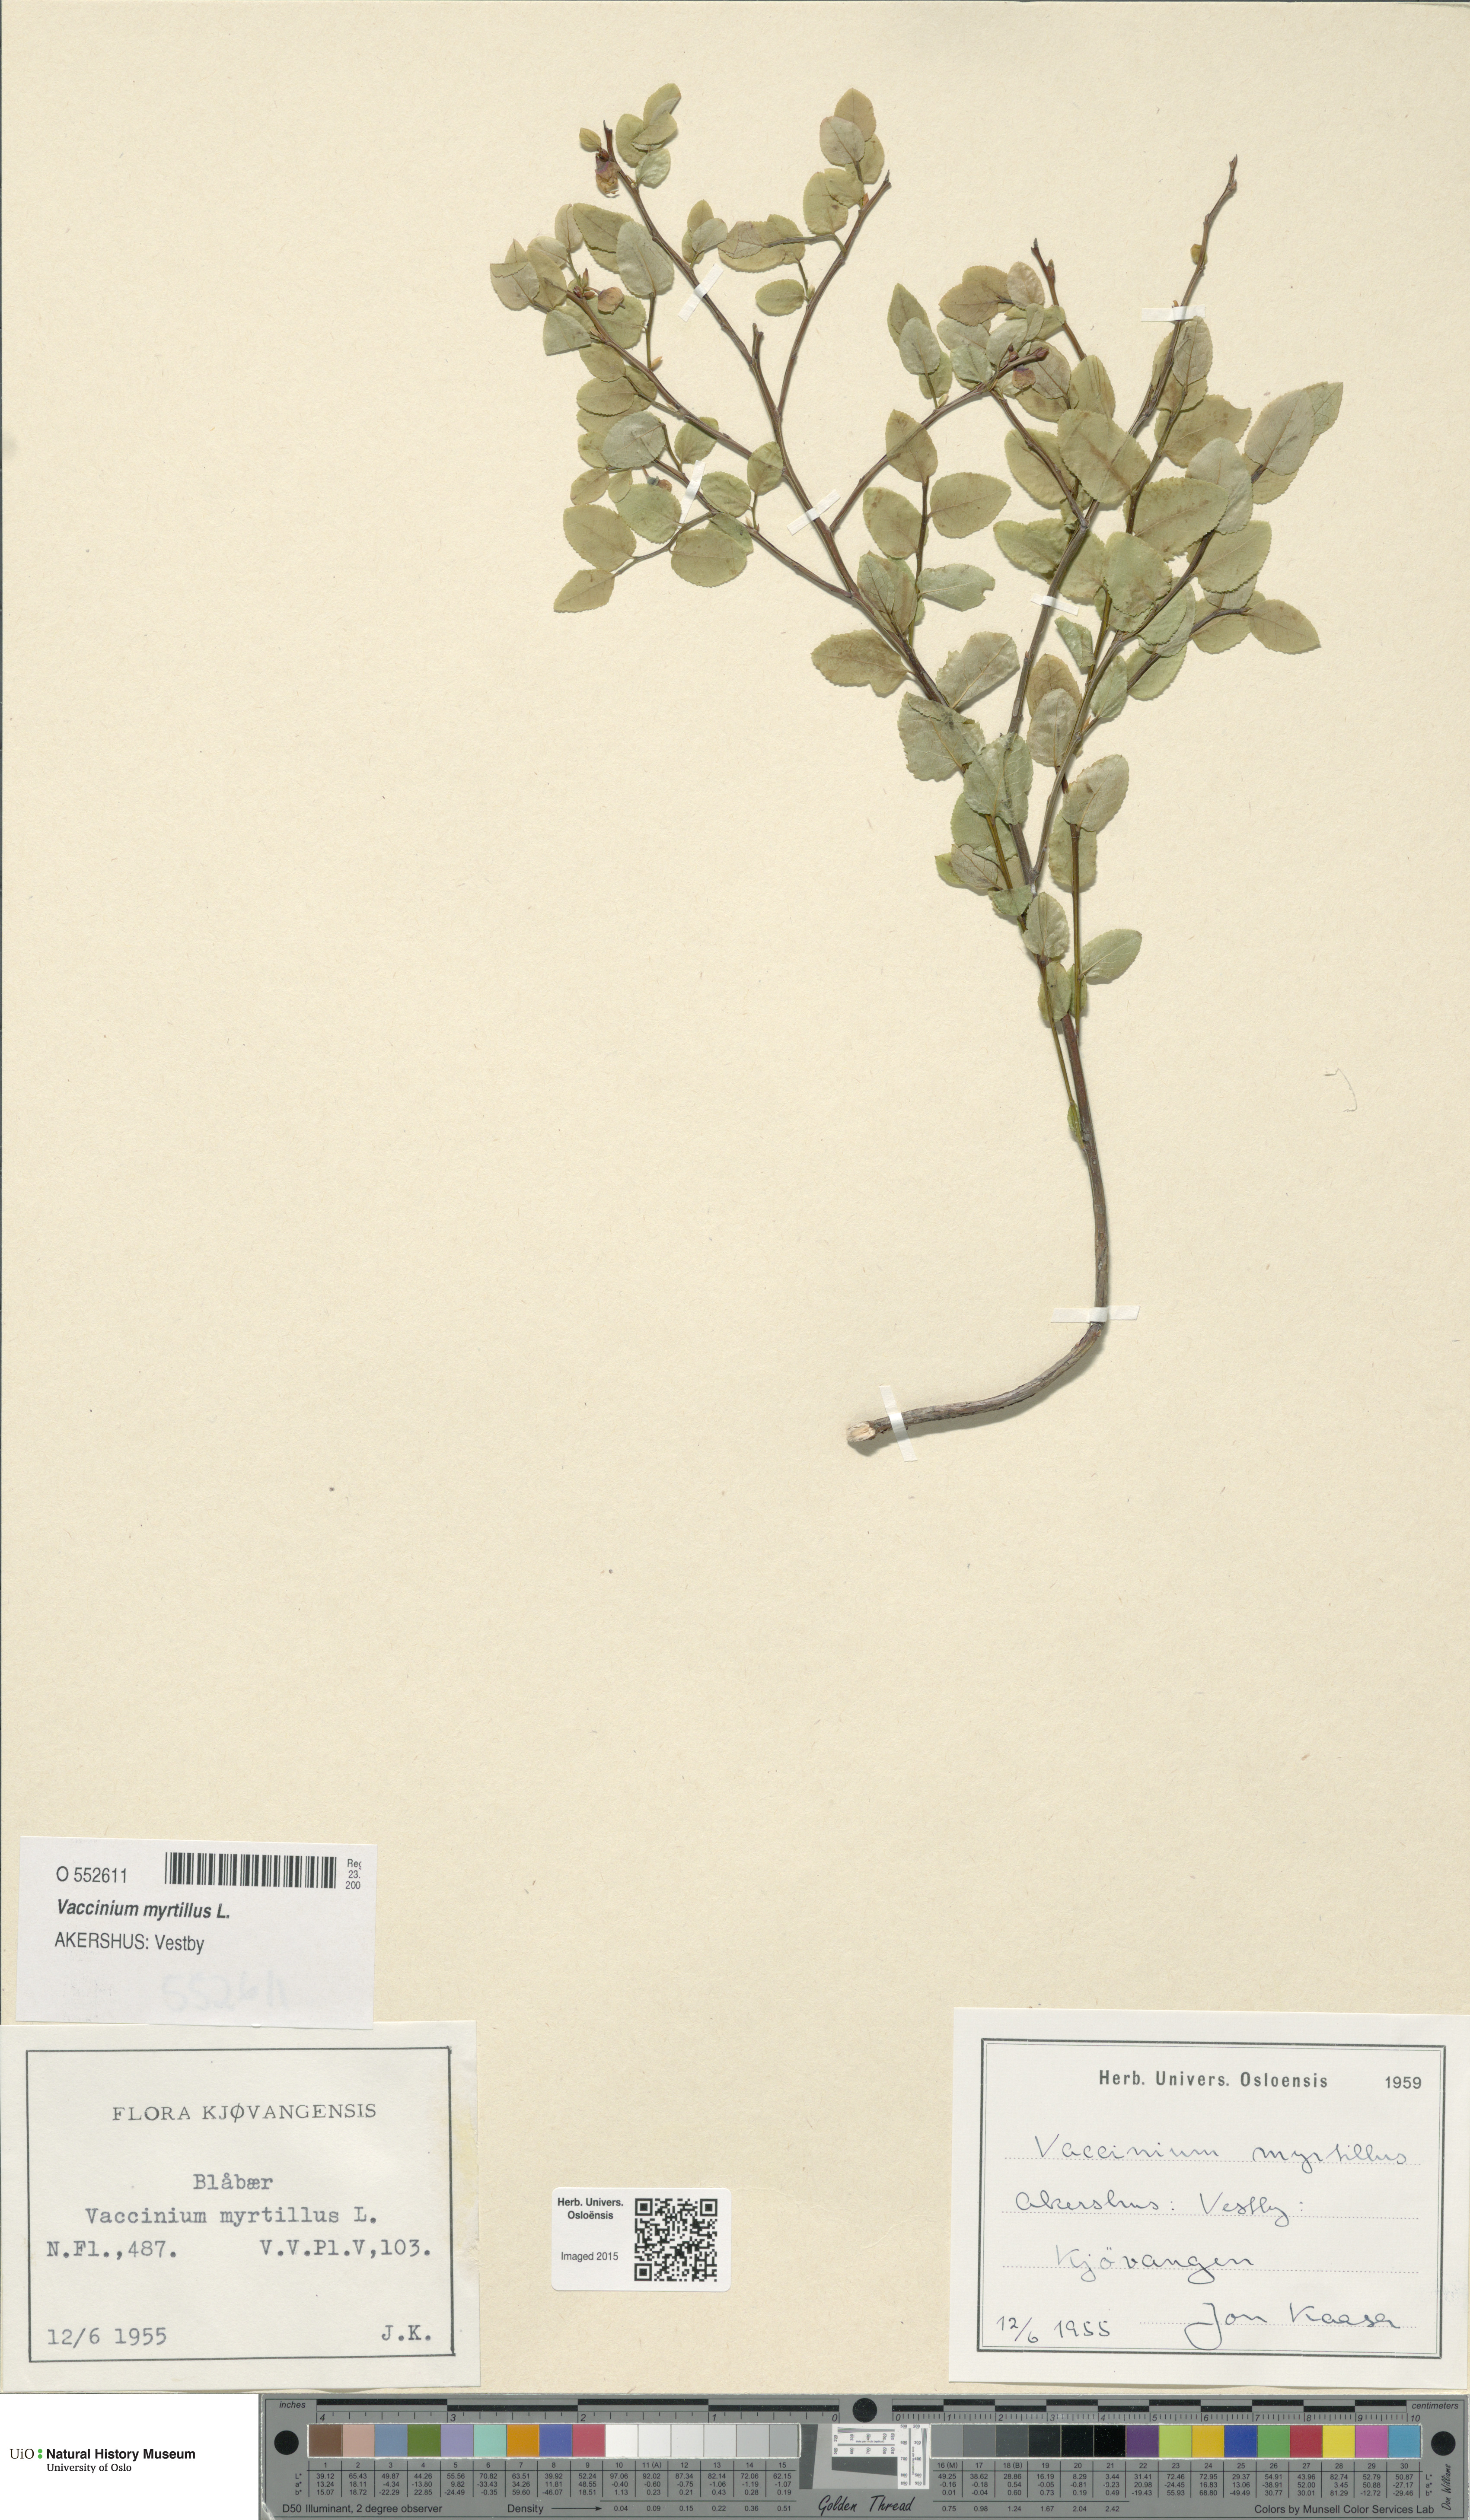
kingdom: Plantae
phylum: Tracheophyta
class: Magnoliopsida
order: Ericales
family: Ericaceae
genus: Vaccinium
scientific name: Vaccinium myrtillus
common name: Bilberry
